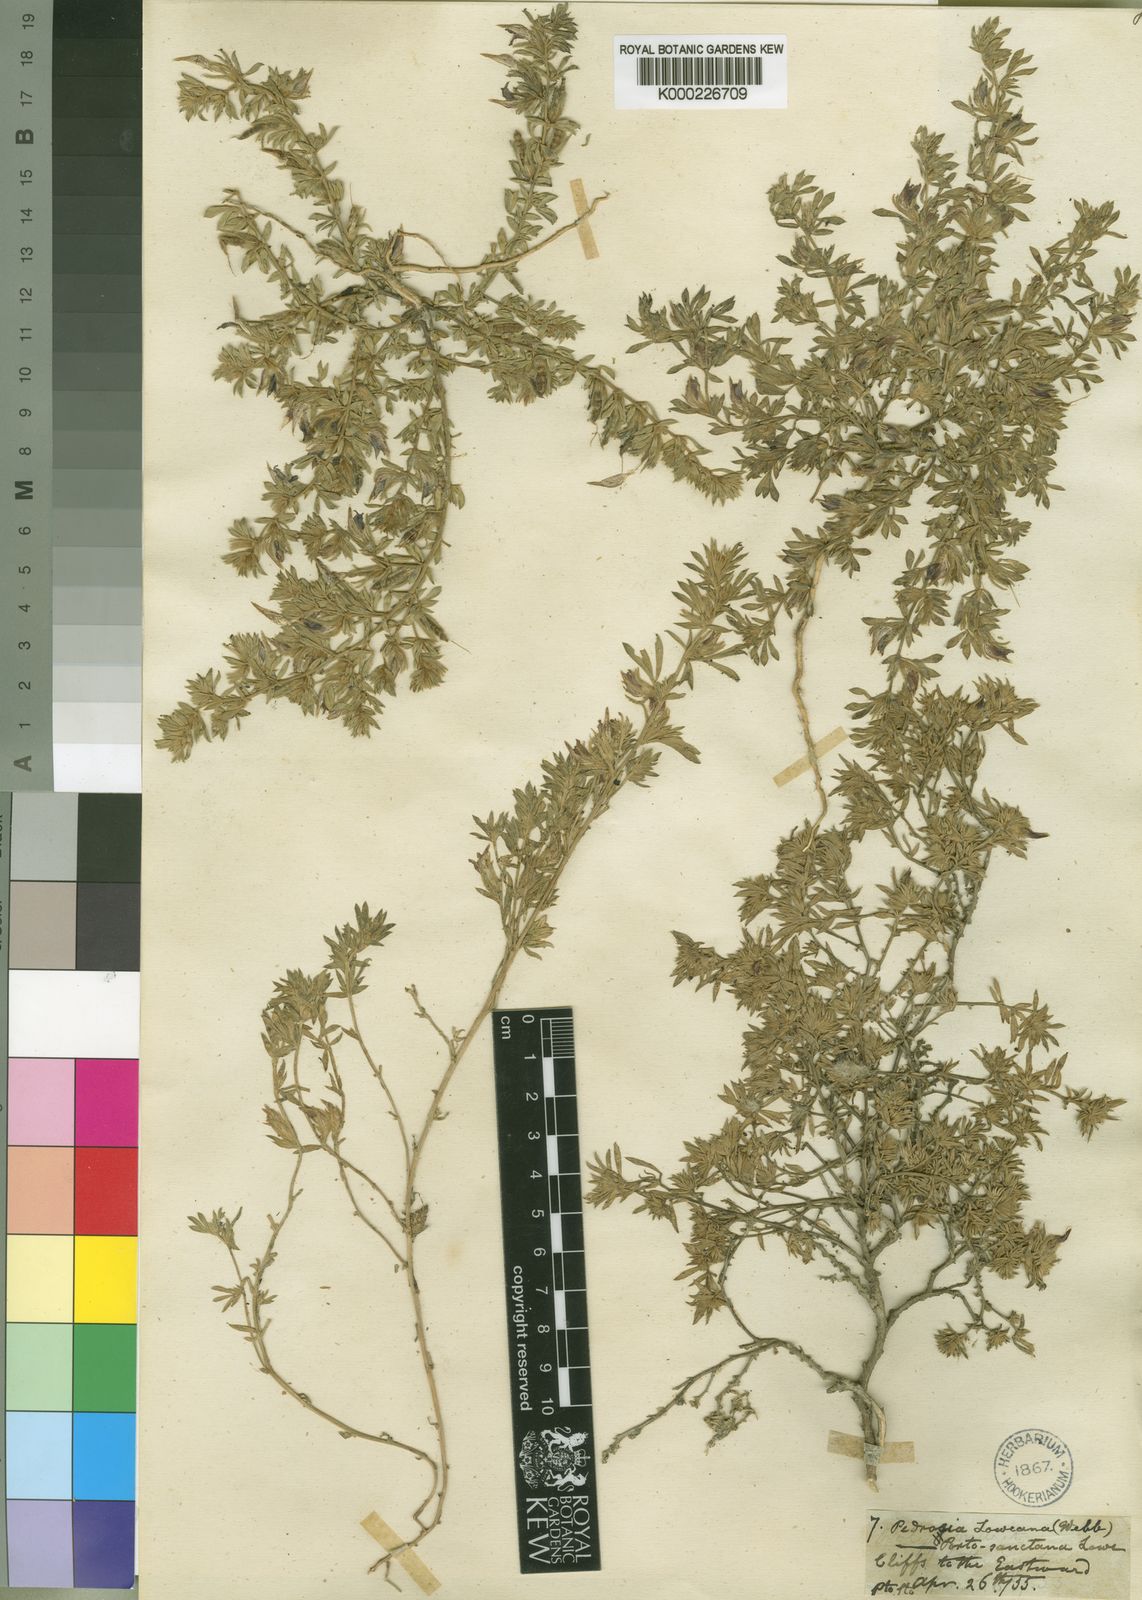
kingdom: Plantae
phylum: Tracheophyta
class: Magnoliopsida
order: Fabales
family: Fabaceae
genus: Lotus
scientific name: Lotus loweanus
